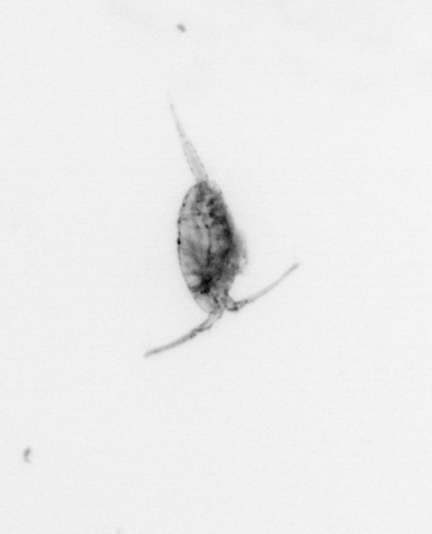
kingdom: Animalia
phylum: Arthropoda
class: Copepoda
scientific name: Copepoda
